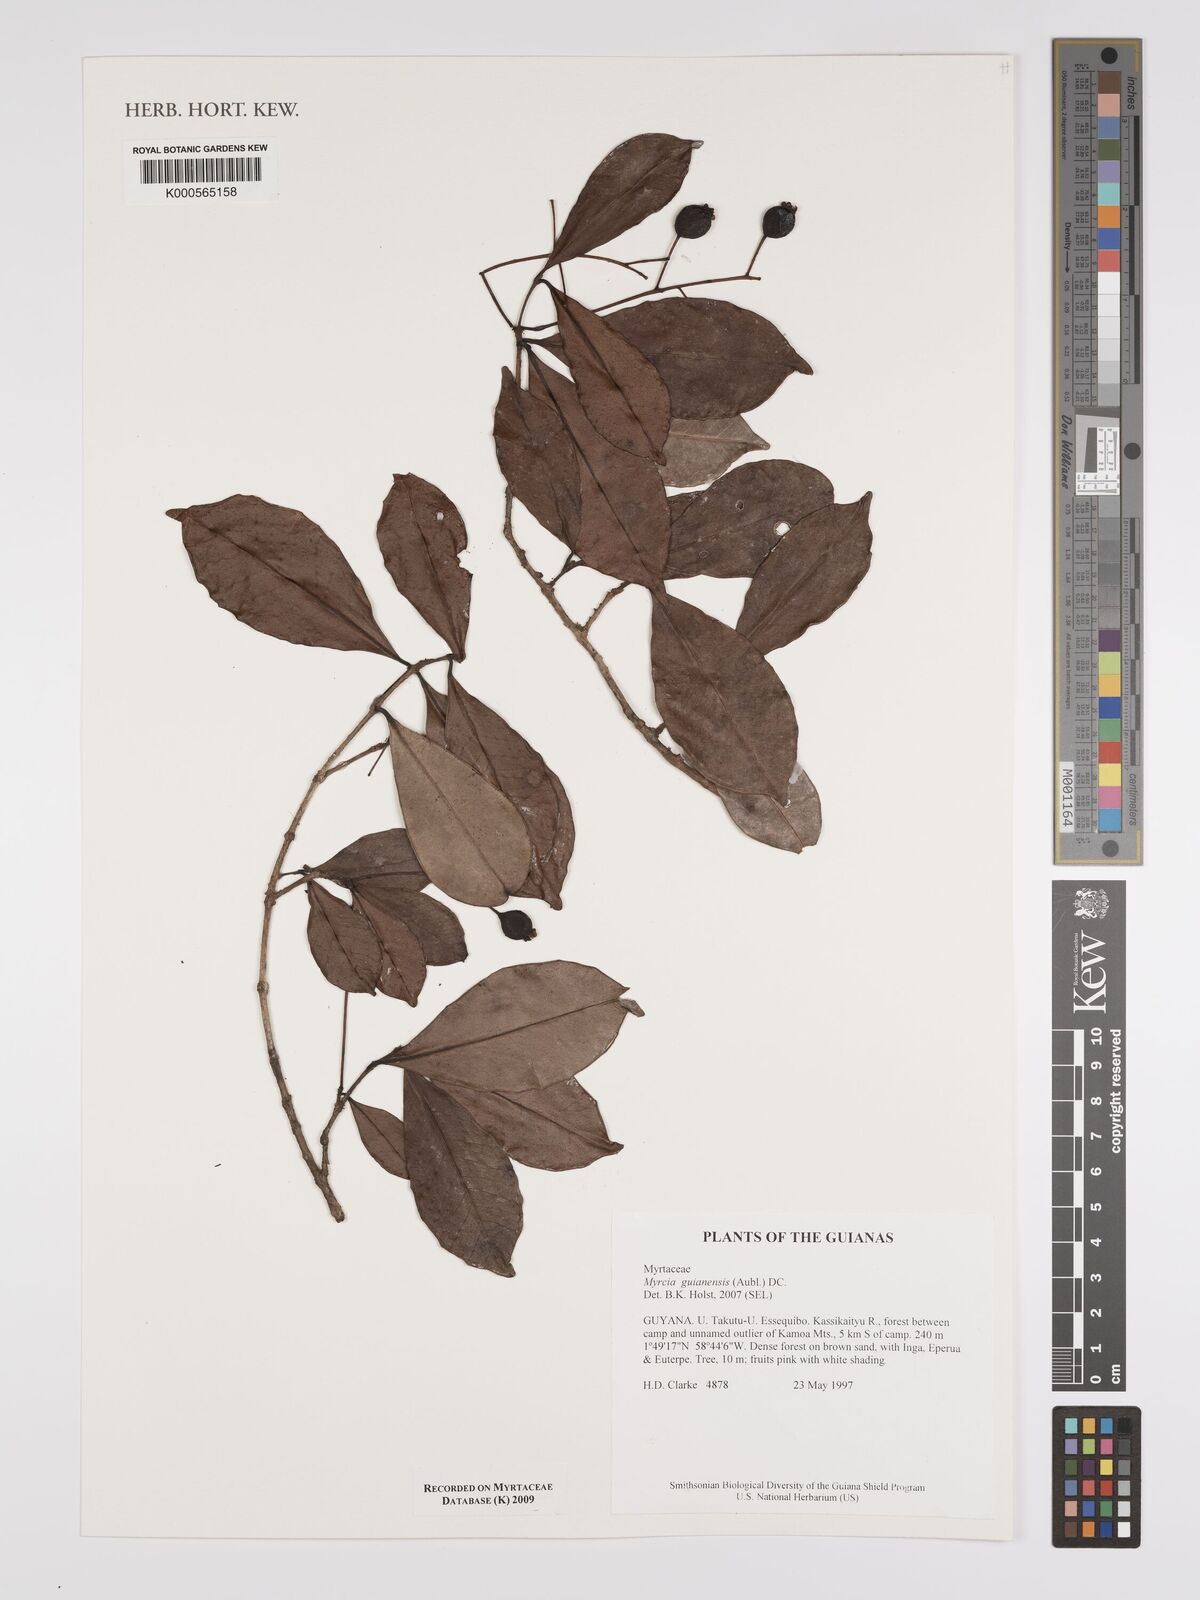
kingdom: Plantae
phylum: Tracheophyta
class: Magnoliopsida
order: Myrtales
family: Myrtaceae
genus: Myrcia
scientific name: Myrcia guianensis
